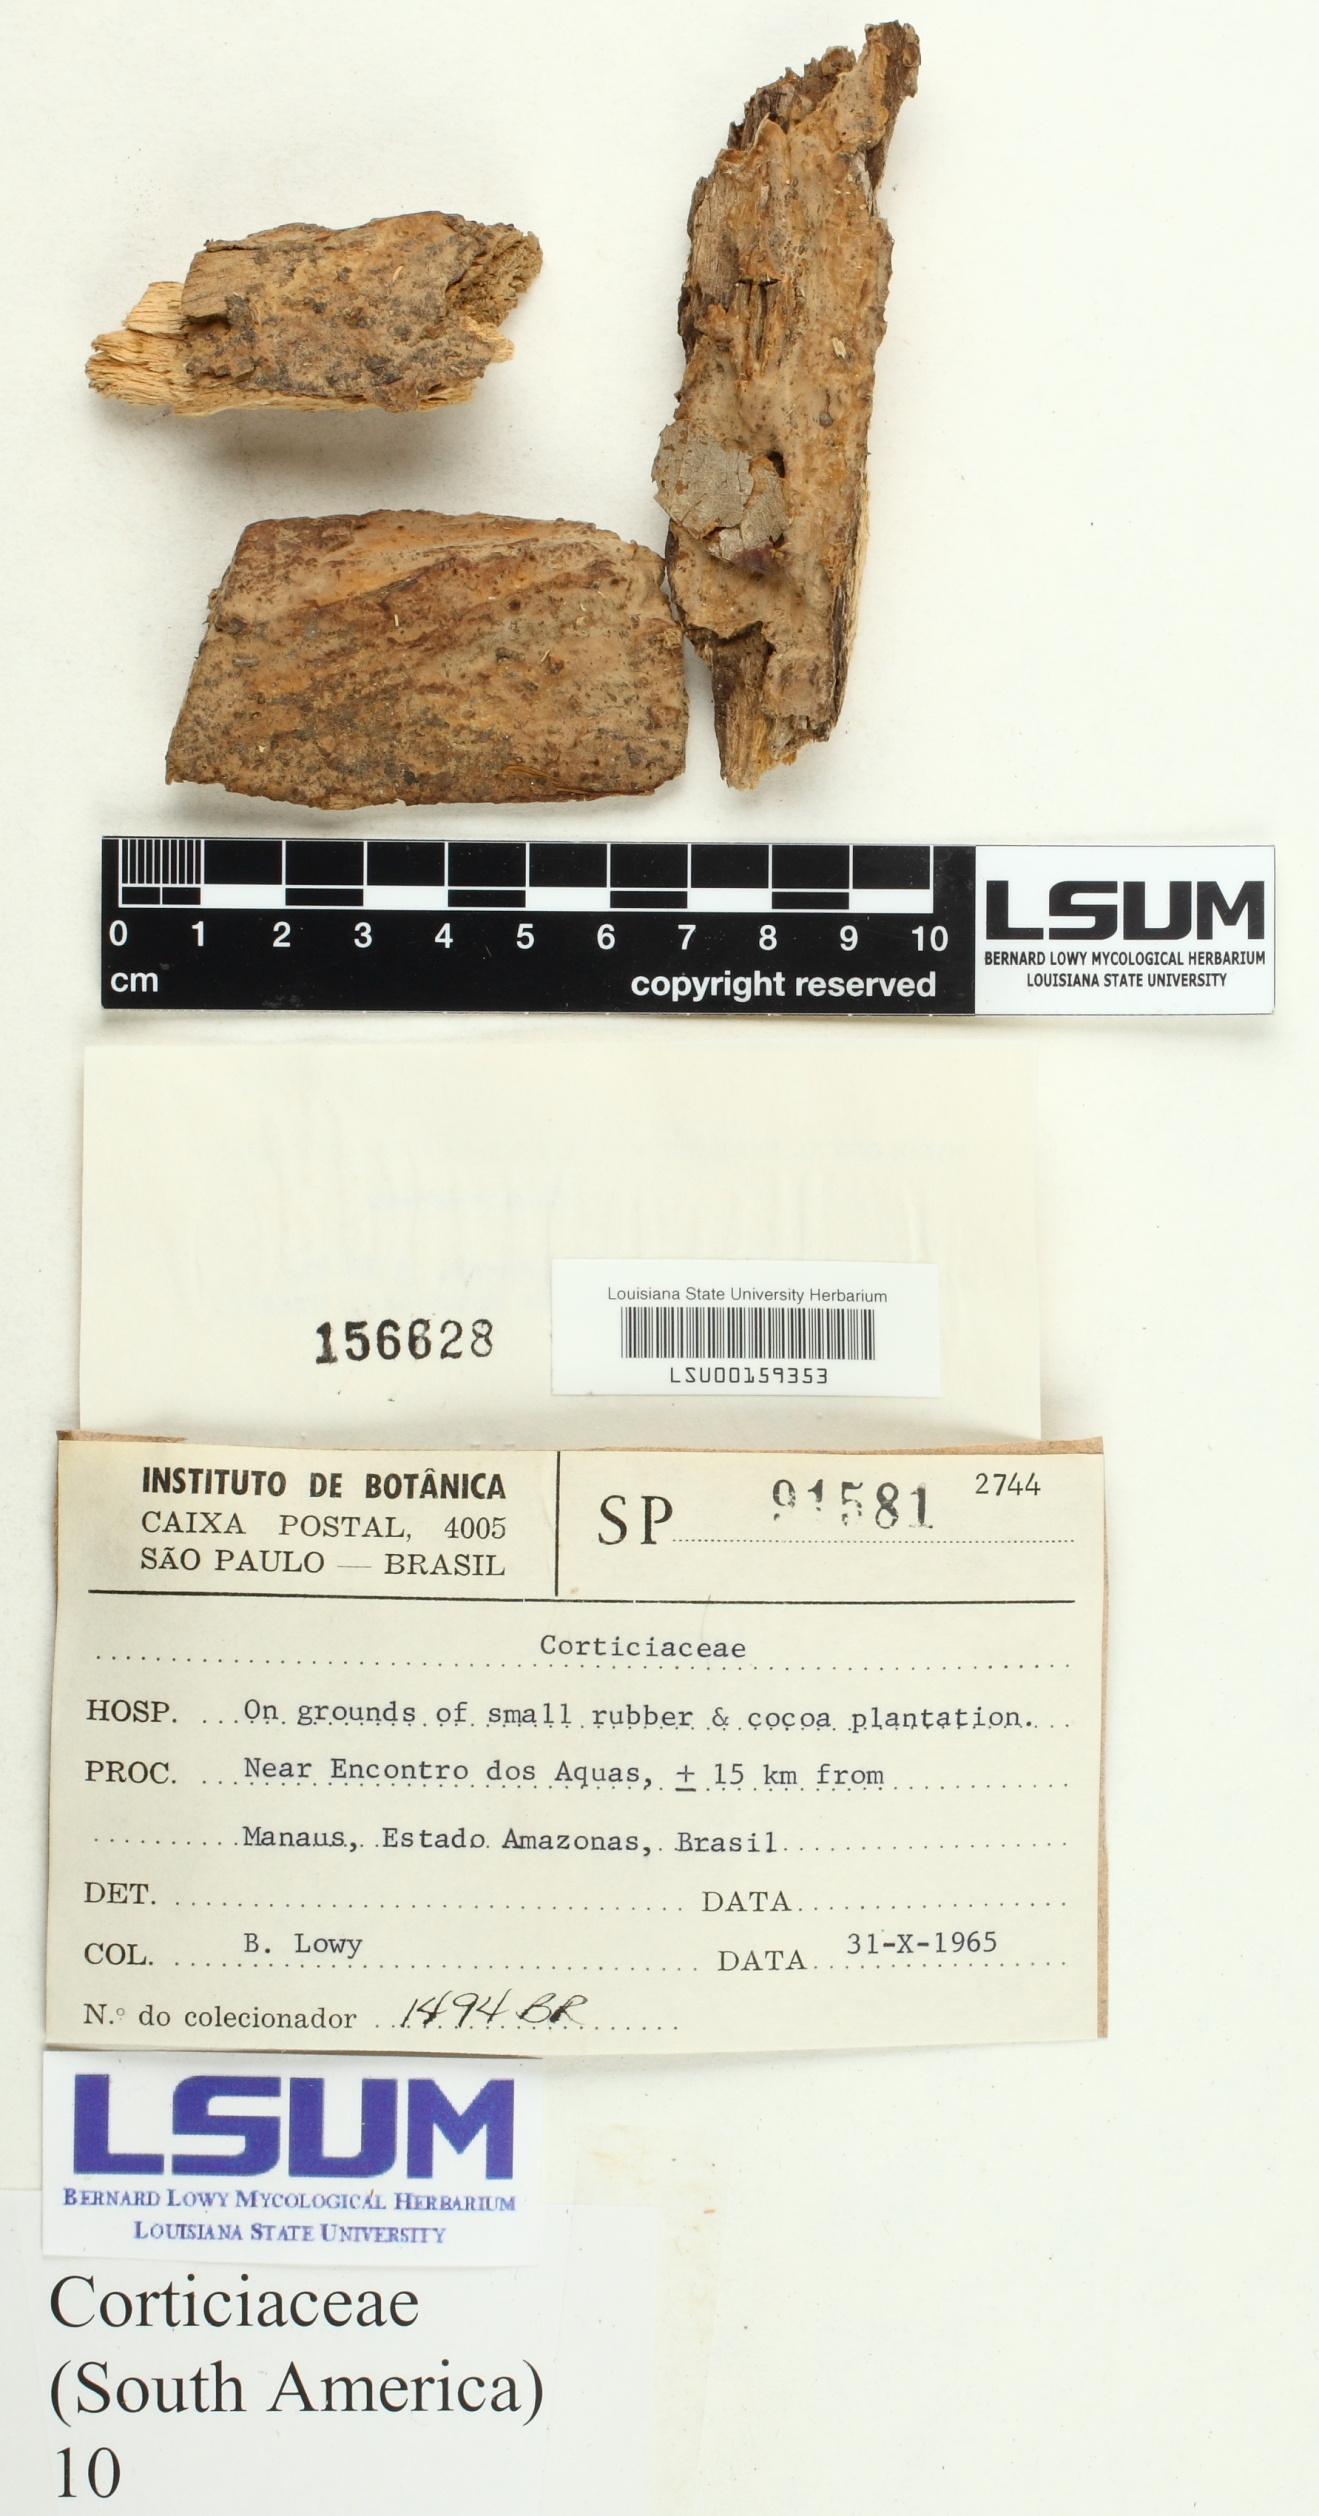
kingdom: Fungi
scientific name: Fungi
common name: Fungi
